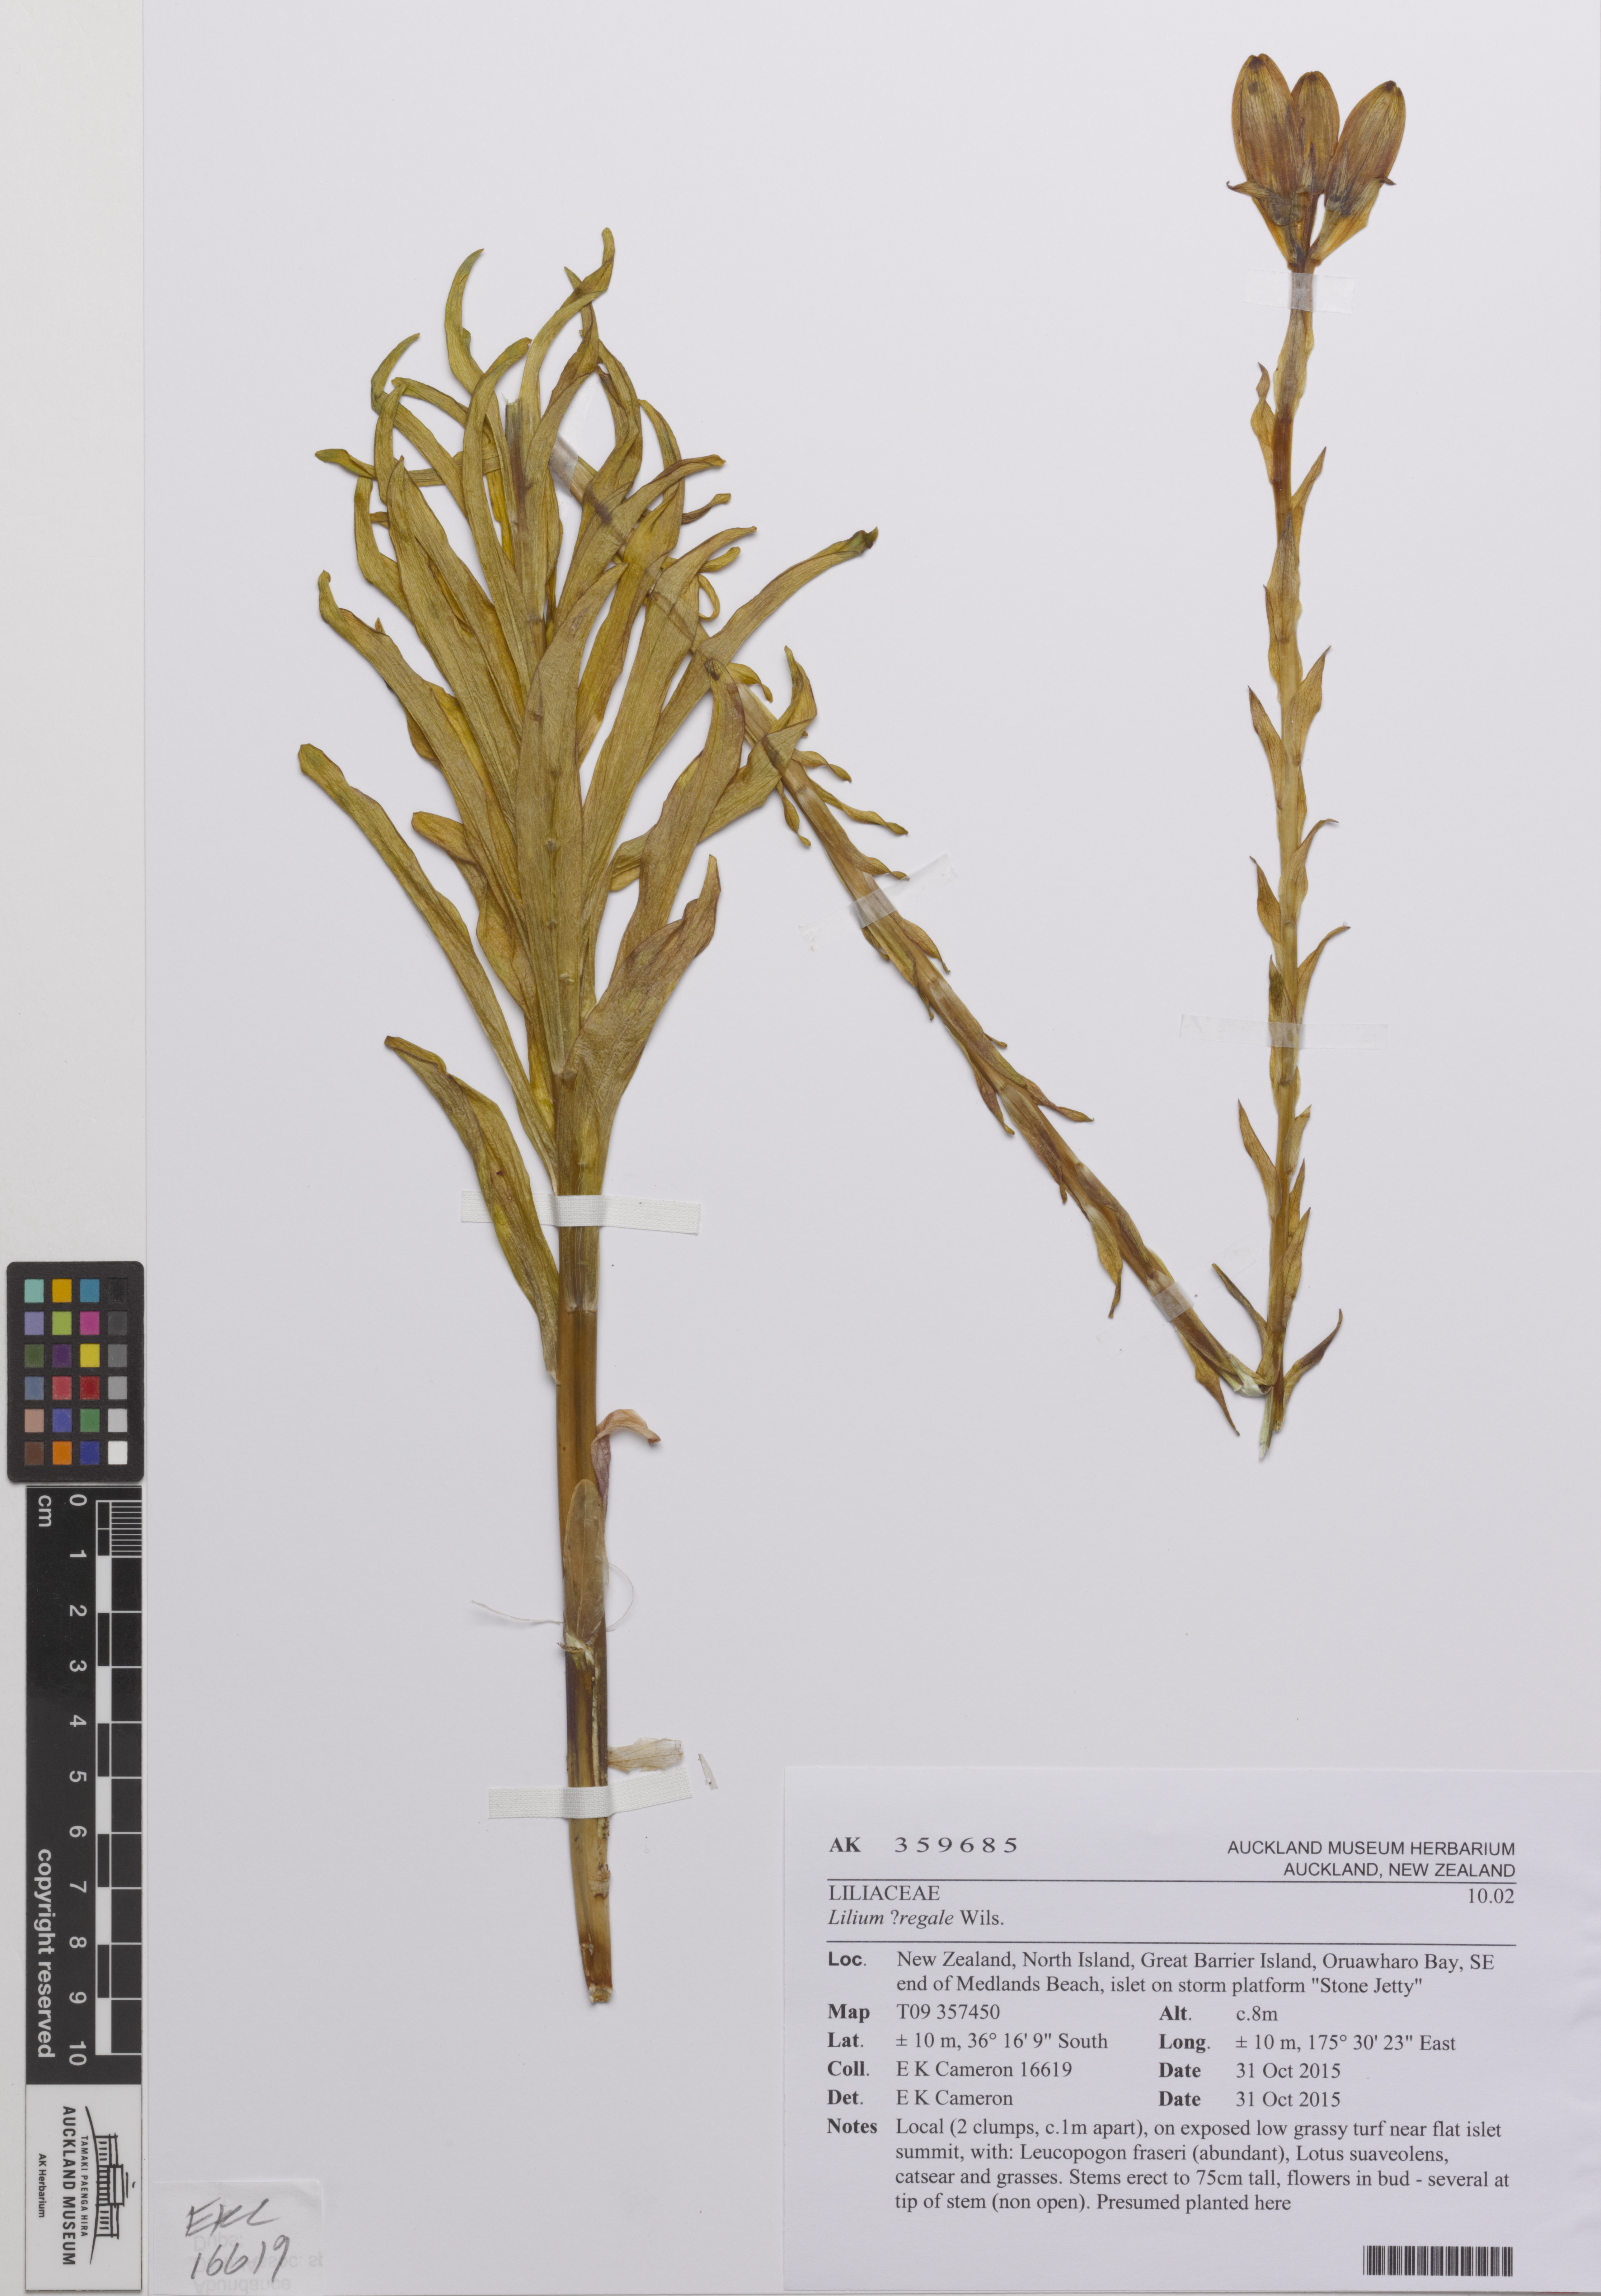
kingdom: Plantae
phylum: Tracheophyta
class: Liliopsida
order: Liliales
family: Liliaceae
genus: Lilium
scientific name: Lilium regale
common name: Regal lily
